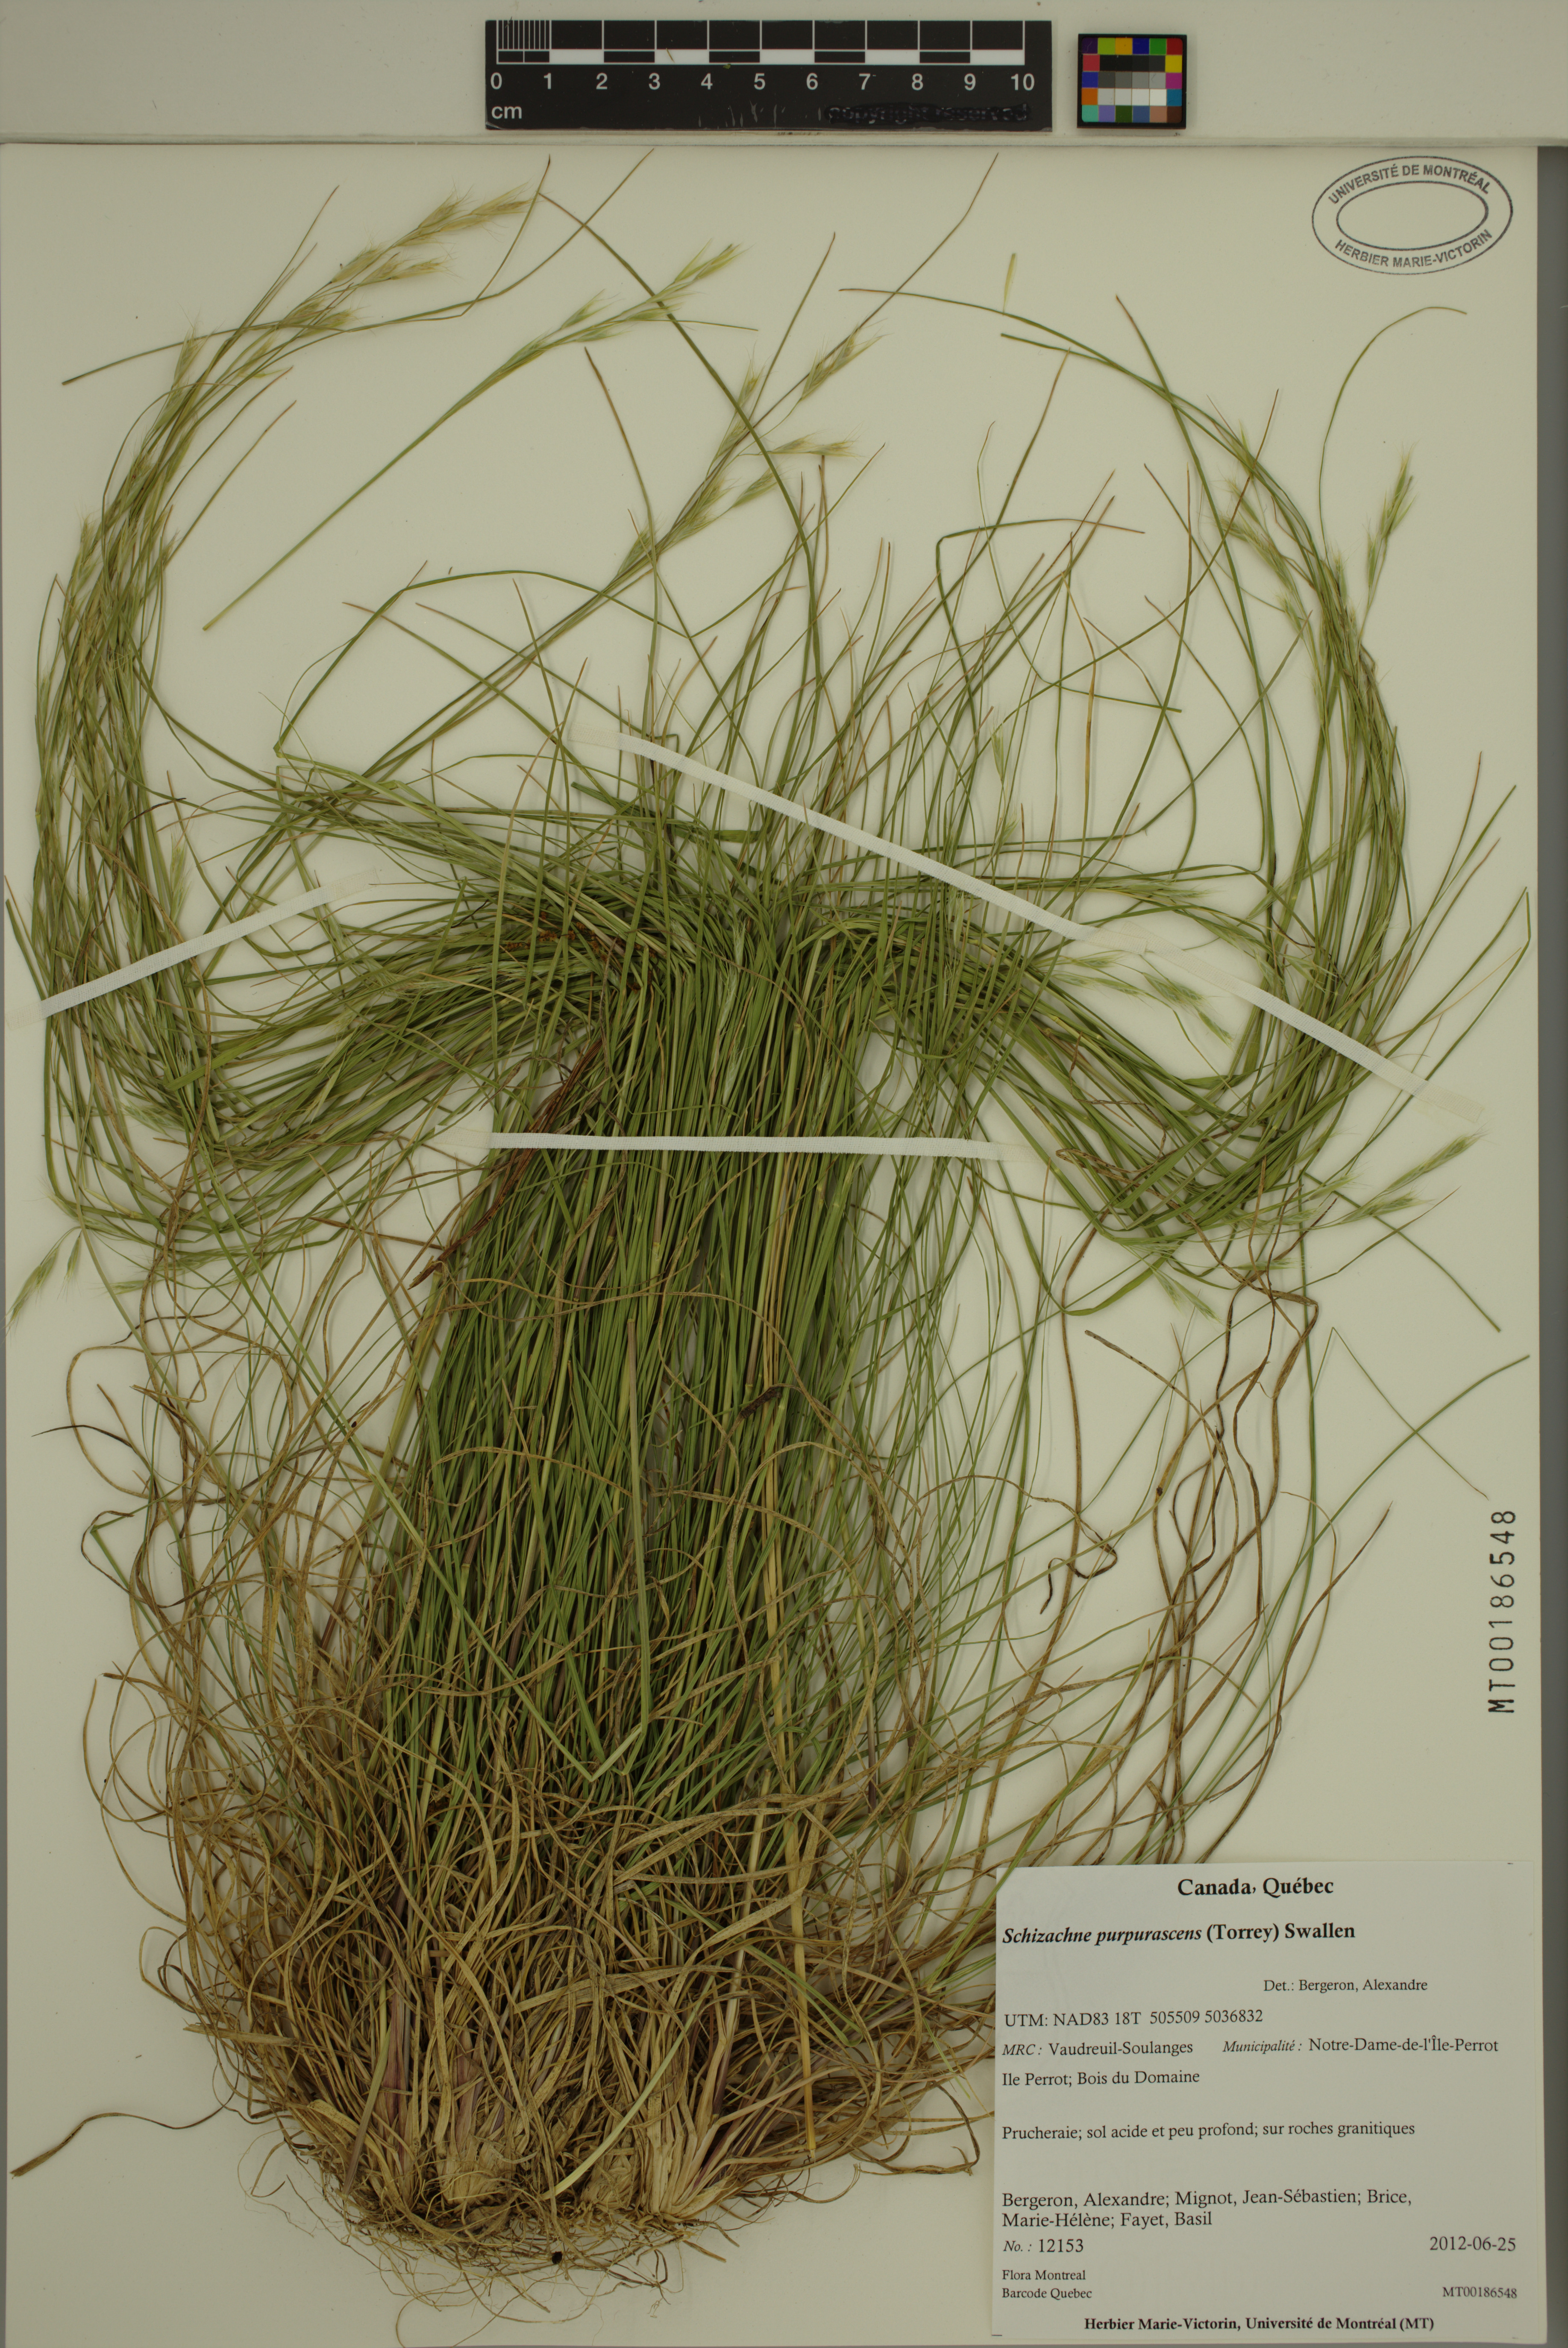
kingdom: Plantae
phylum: Tracheophyta
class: Liliopsida
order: Poales
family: Poaceae
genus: Schizachne
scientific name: Schizachne purpurascens
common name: False melic
